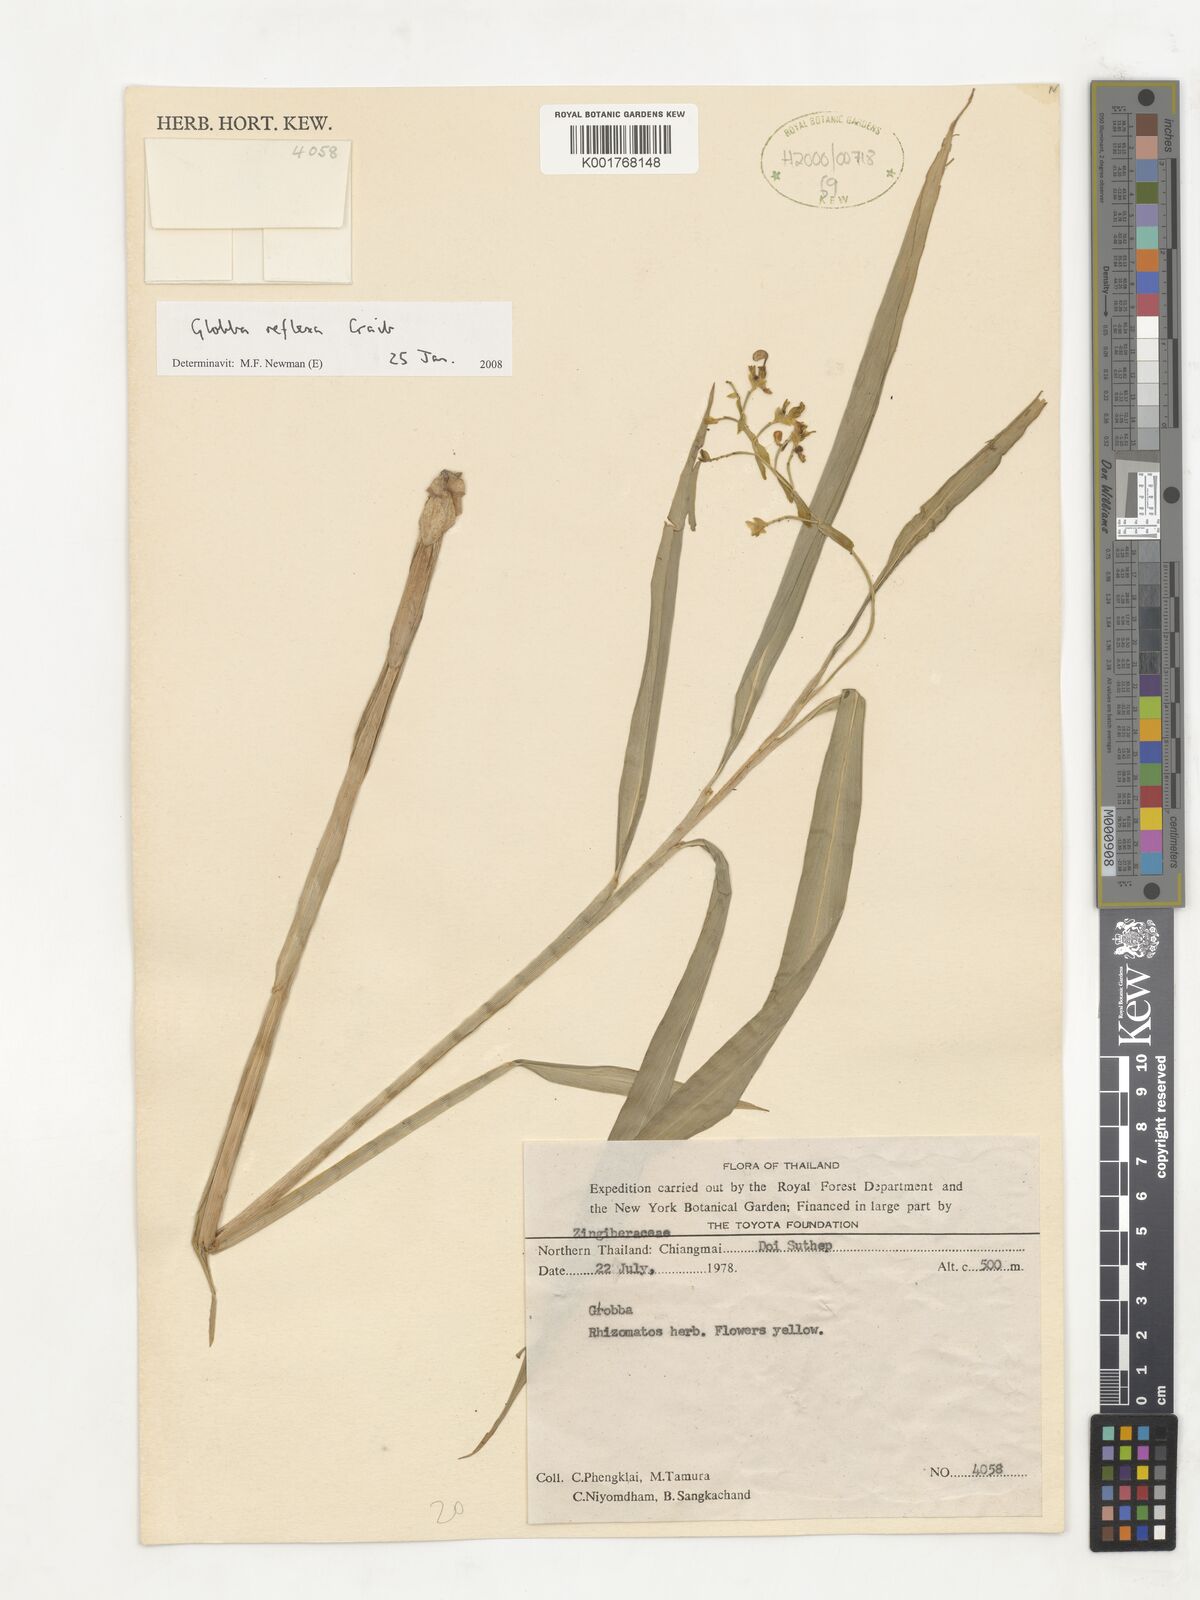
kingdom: Plantae
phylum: Tracheophyta
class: Liliopsida
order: Zingiberales
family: Zingiberaceae
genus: Globba
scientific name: Globba reflexa
